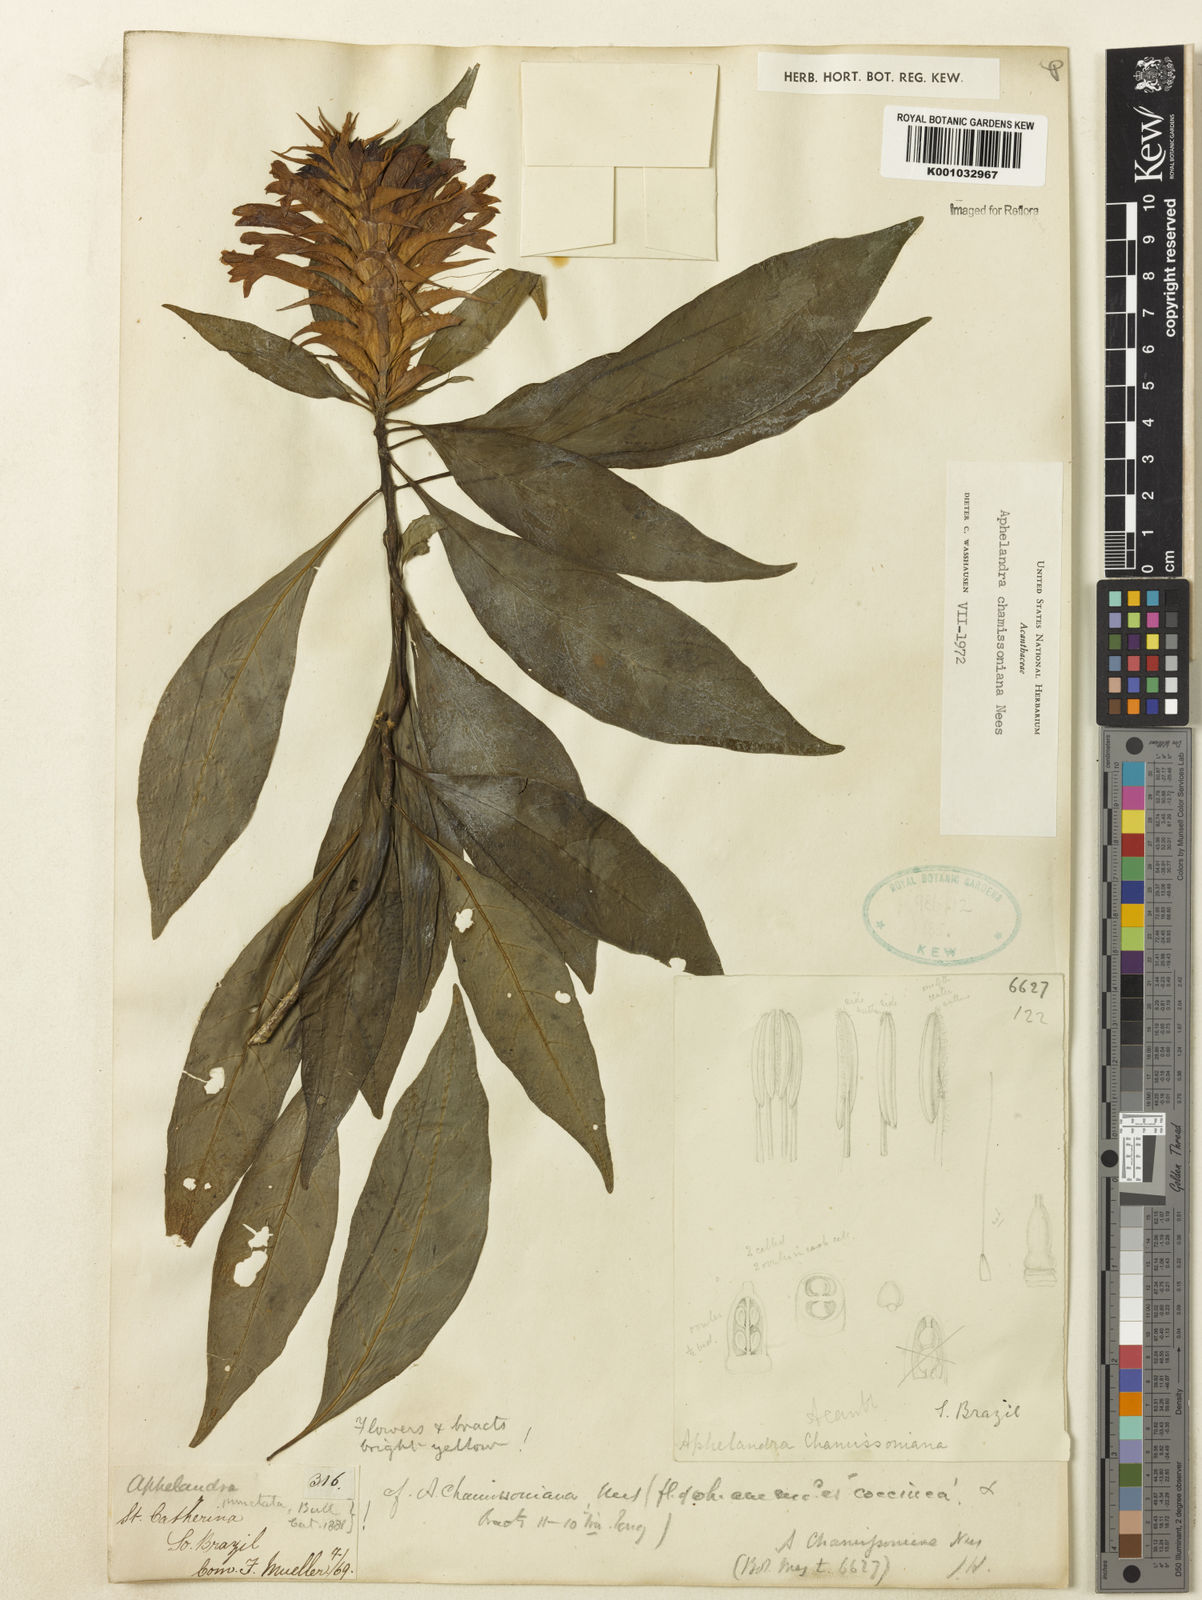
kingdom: Plantae
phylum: Tracheophyta
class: Magnoliopsida
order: Lamiales
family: Acanthaceae
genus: Aphelandra
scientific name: Aphelandra chamissoniana
